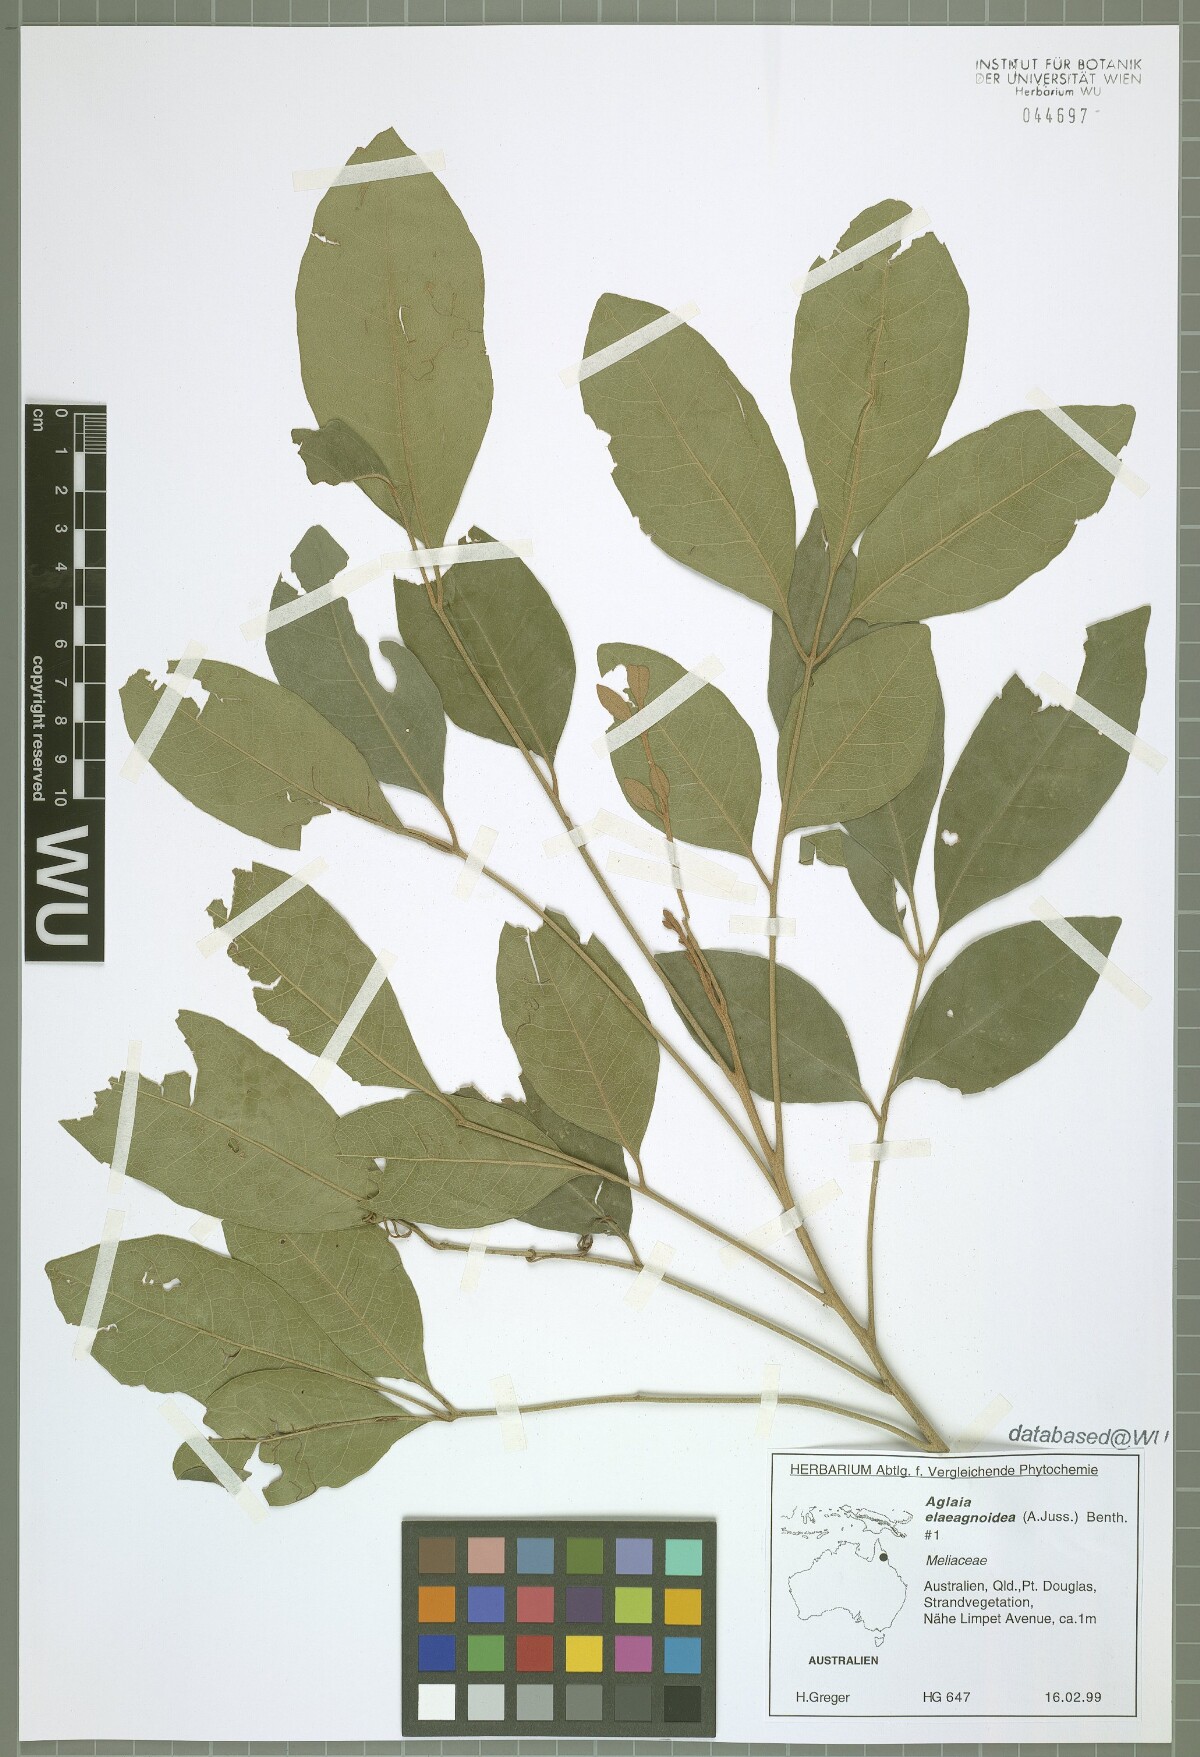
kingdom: Plantae
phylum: Tracheophyta
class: Magnoliopsida
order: Sapindales
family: Meliaceae
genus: Aglaia
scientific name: Aglaia elaeagnoidea
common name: Droopyleaf
